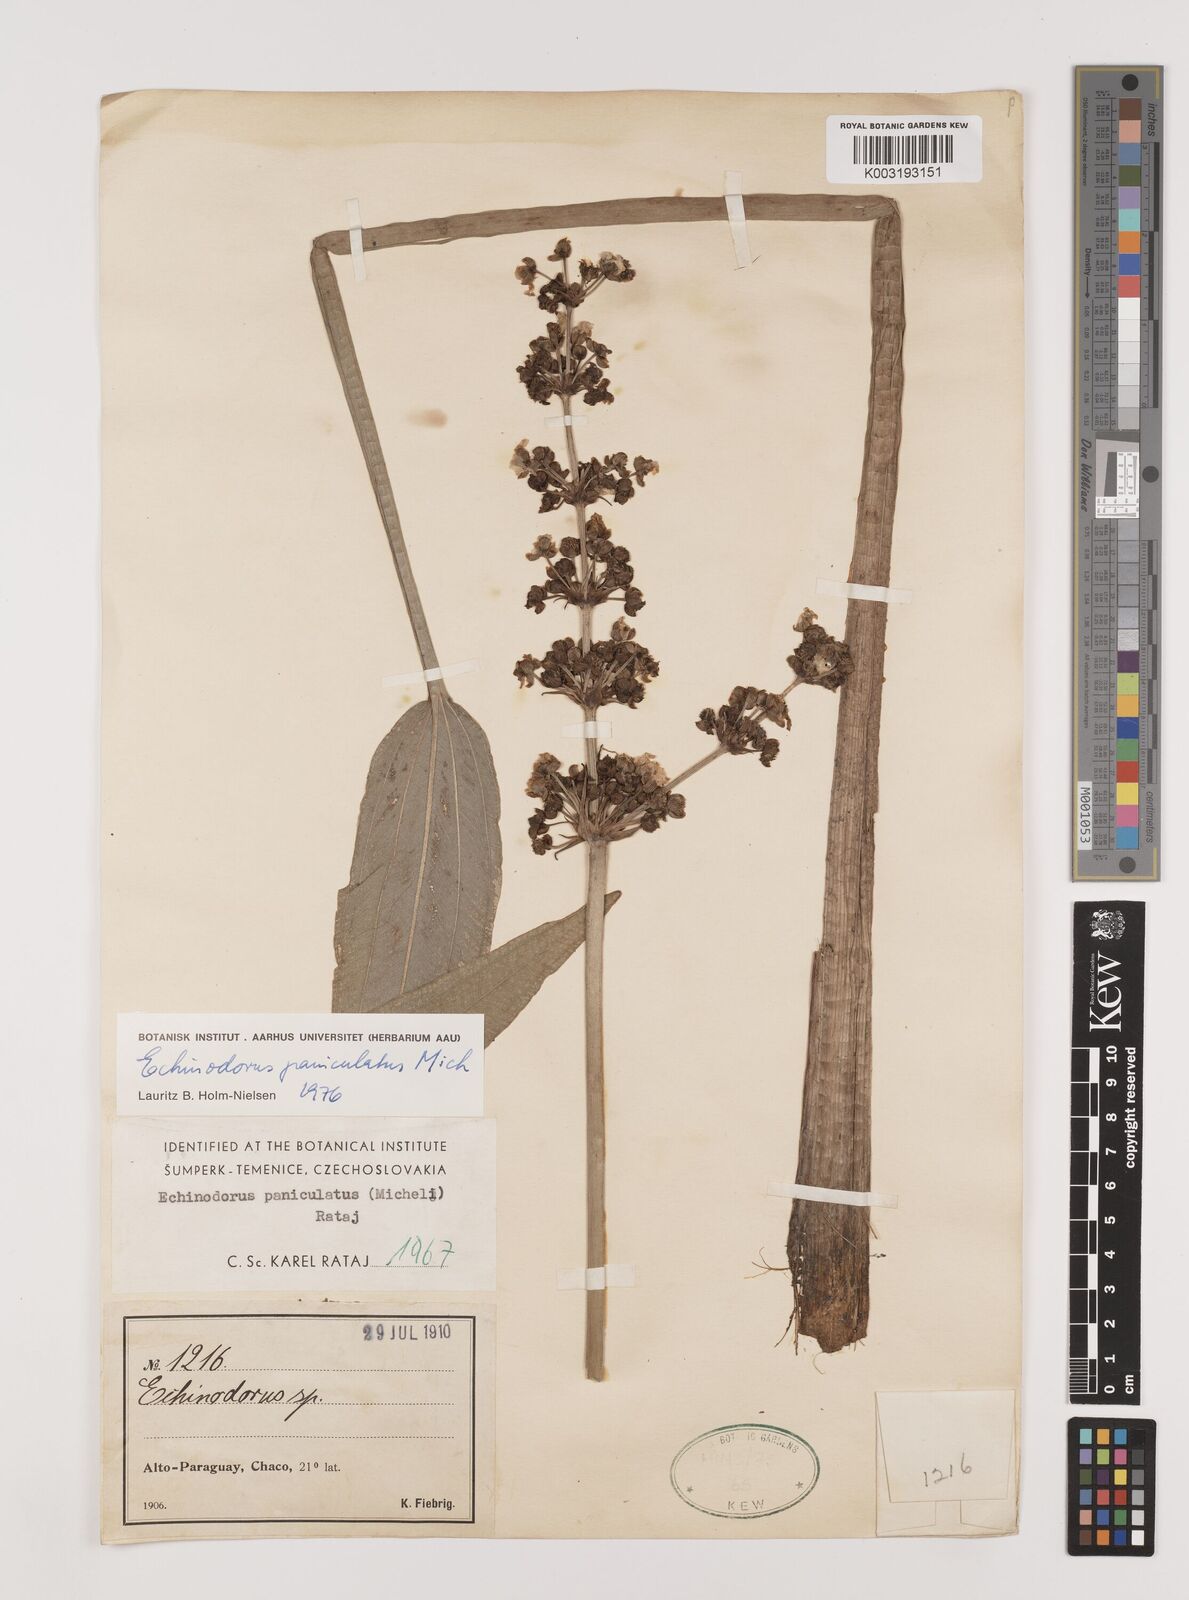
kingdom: Plantae
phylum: Tracheophyta
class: Liliopsida
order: Alismatales
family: Alismataceae
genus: Aquarius
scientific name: Aquarius paniculatus
